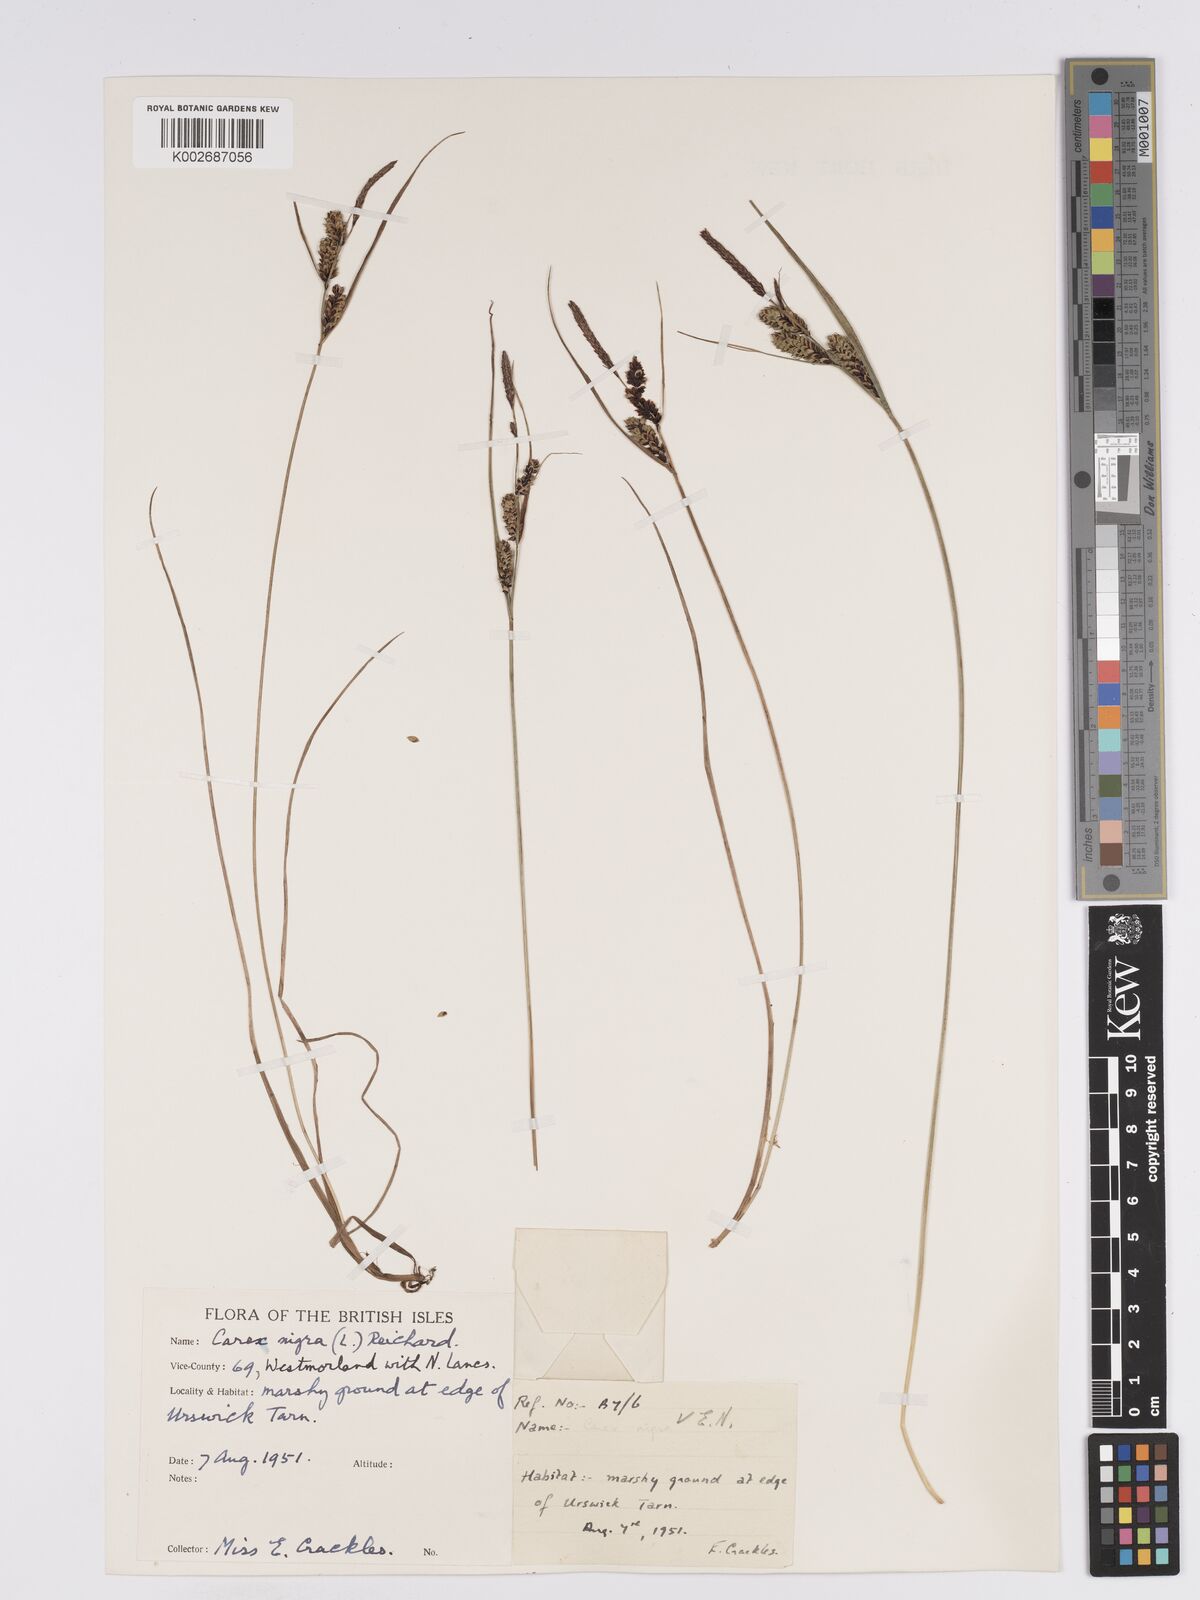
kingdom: Plantae
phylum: Tracheophyta
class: Liliopsida
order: Poales
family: Cyperaceae
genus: Carex
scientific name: Carex nigra
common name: Common sedge
